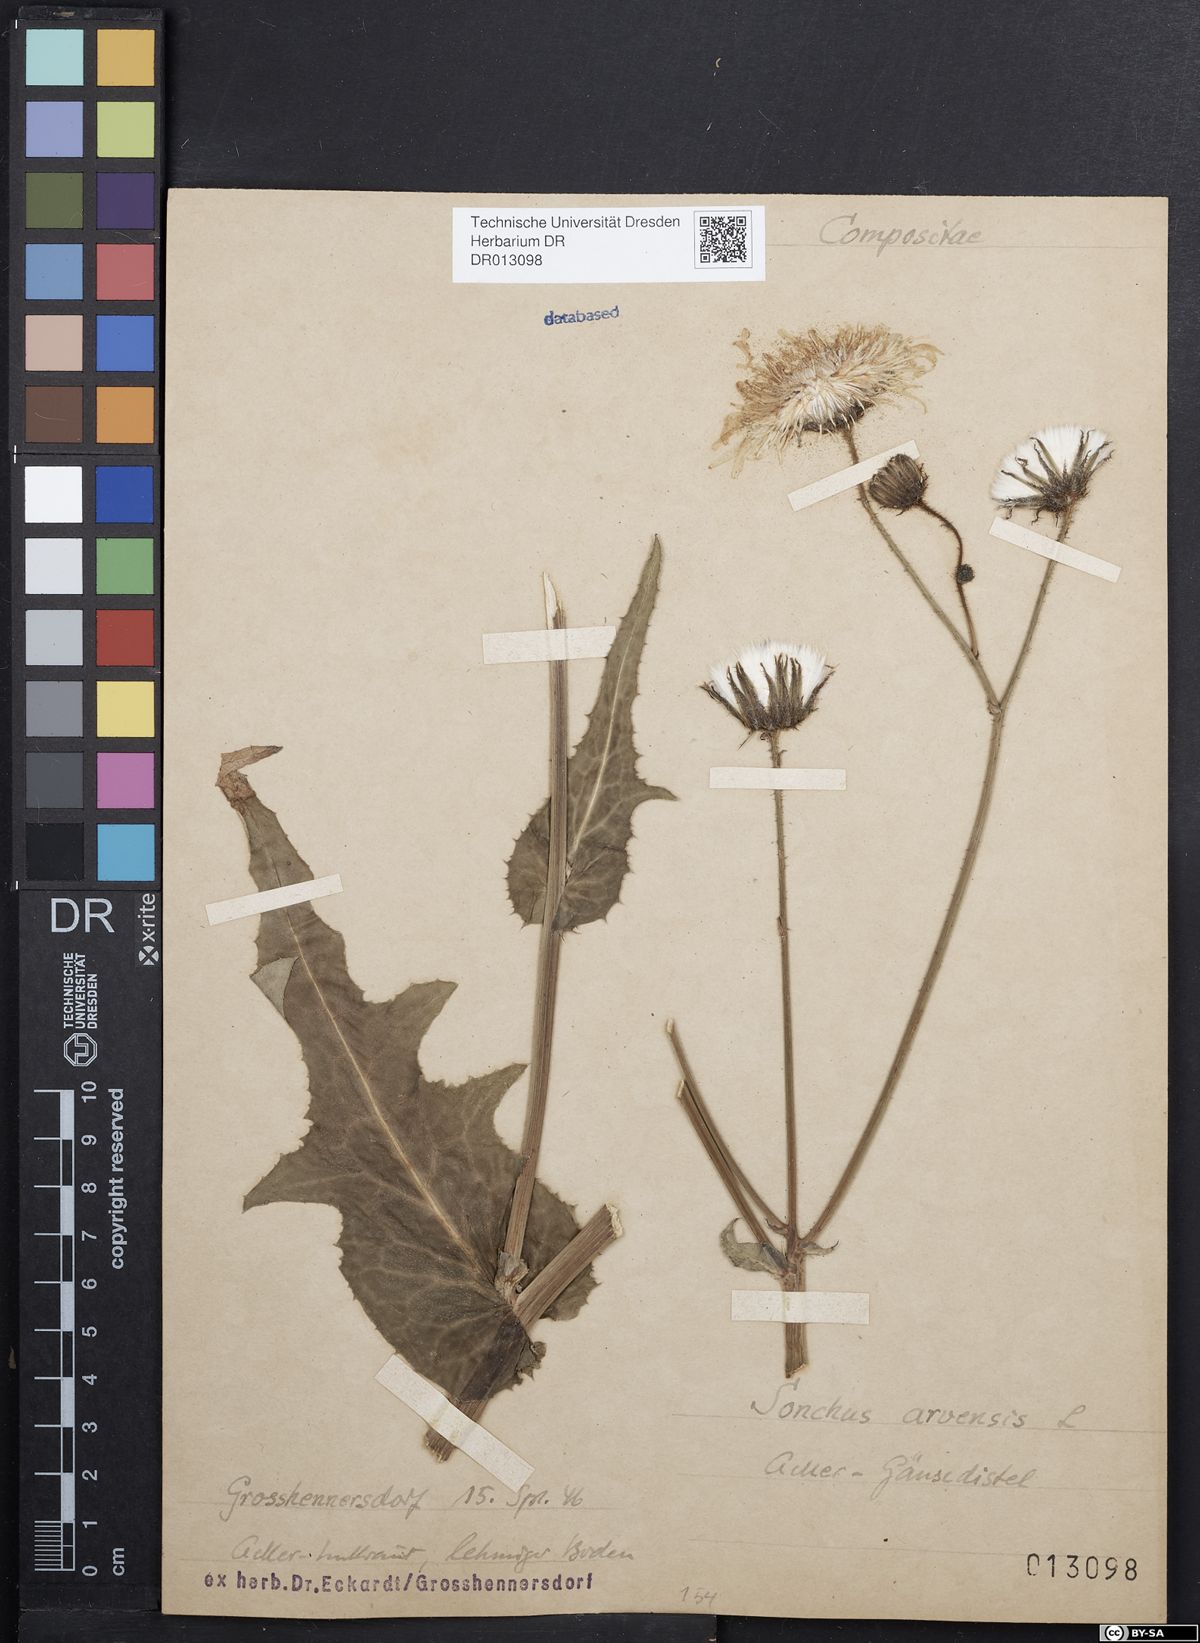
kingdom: Plantae
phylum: Tracheophyta
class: Magnoliopsida
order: Asterales
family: Asteraceae
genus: Sonchus
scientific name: Sonchus arvensis
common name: Perennial sow-thistle
